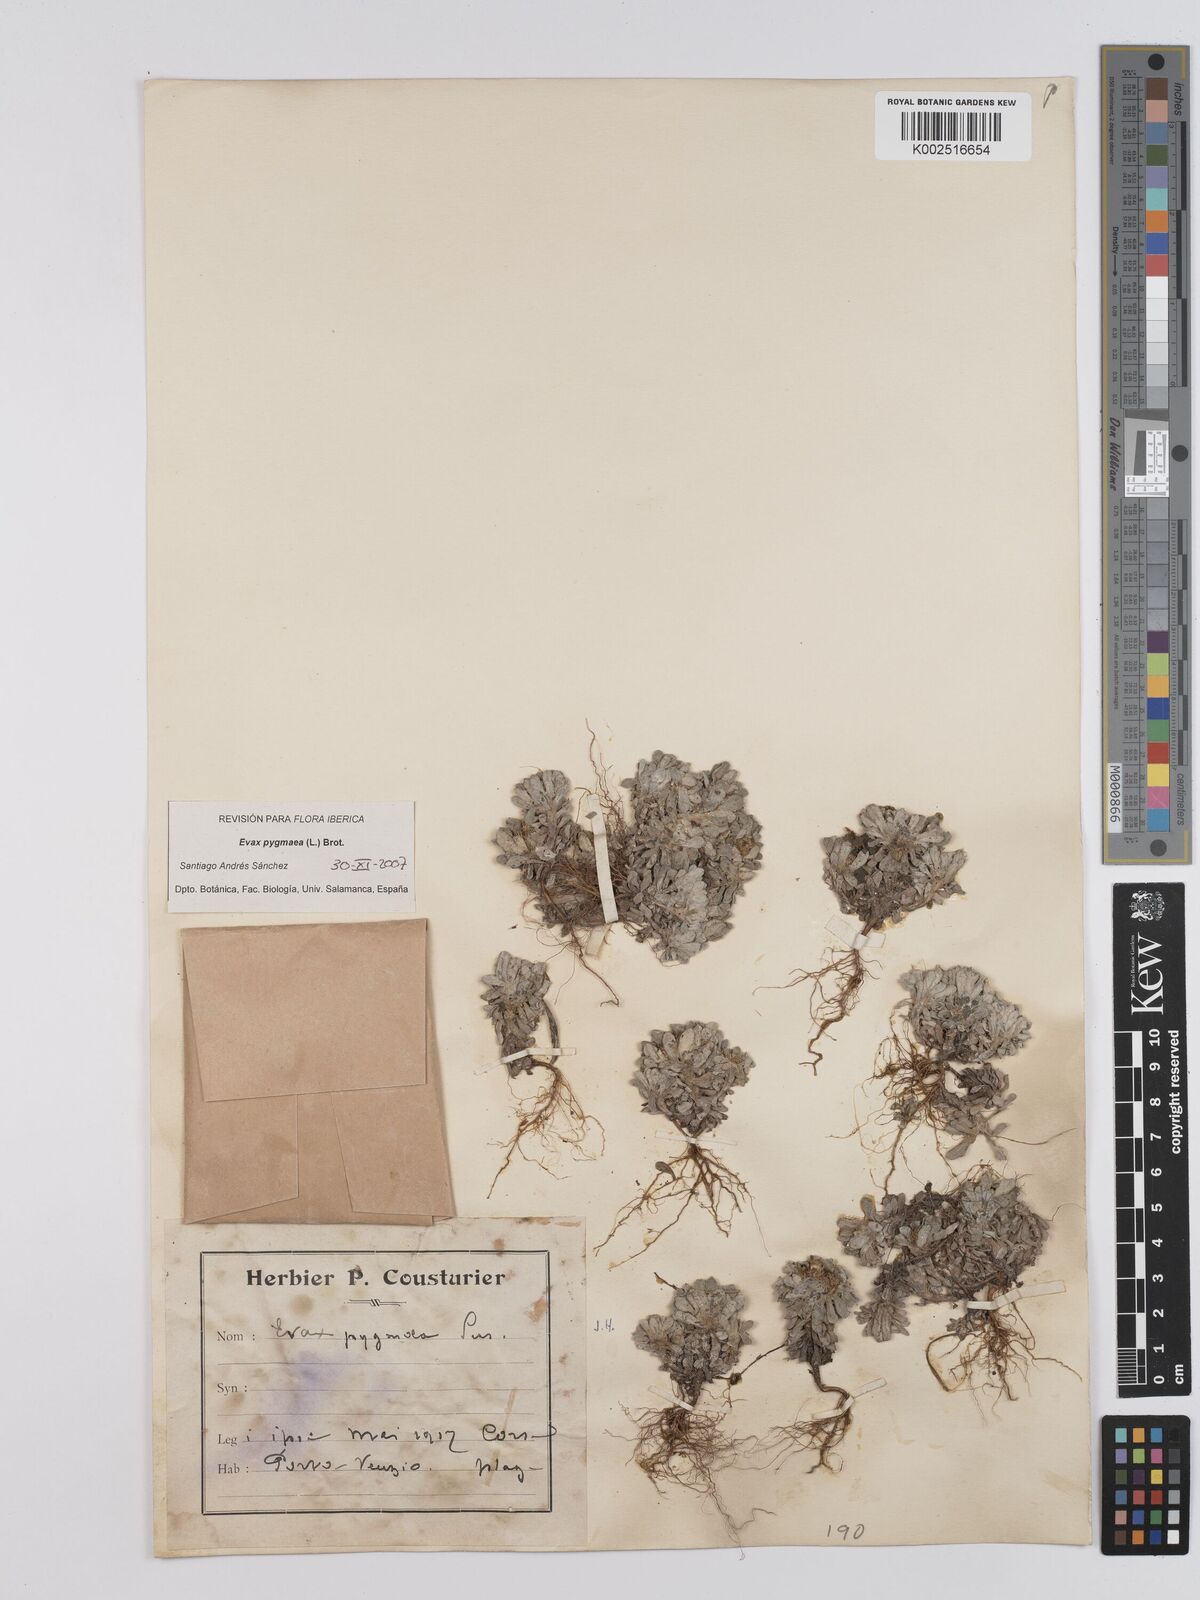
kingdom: Plantae
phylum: Tracheophyta
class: Magnoliopsida
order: Asterales
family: Asteraceae
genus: Filago
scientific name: Filago pygmaea
